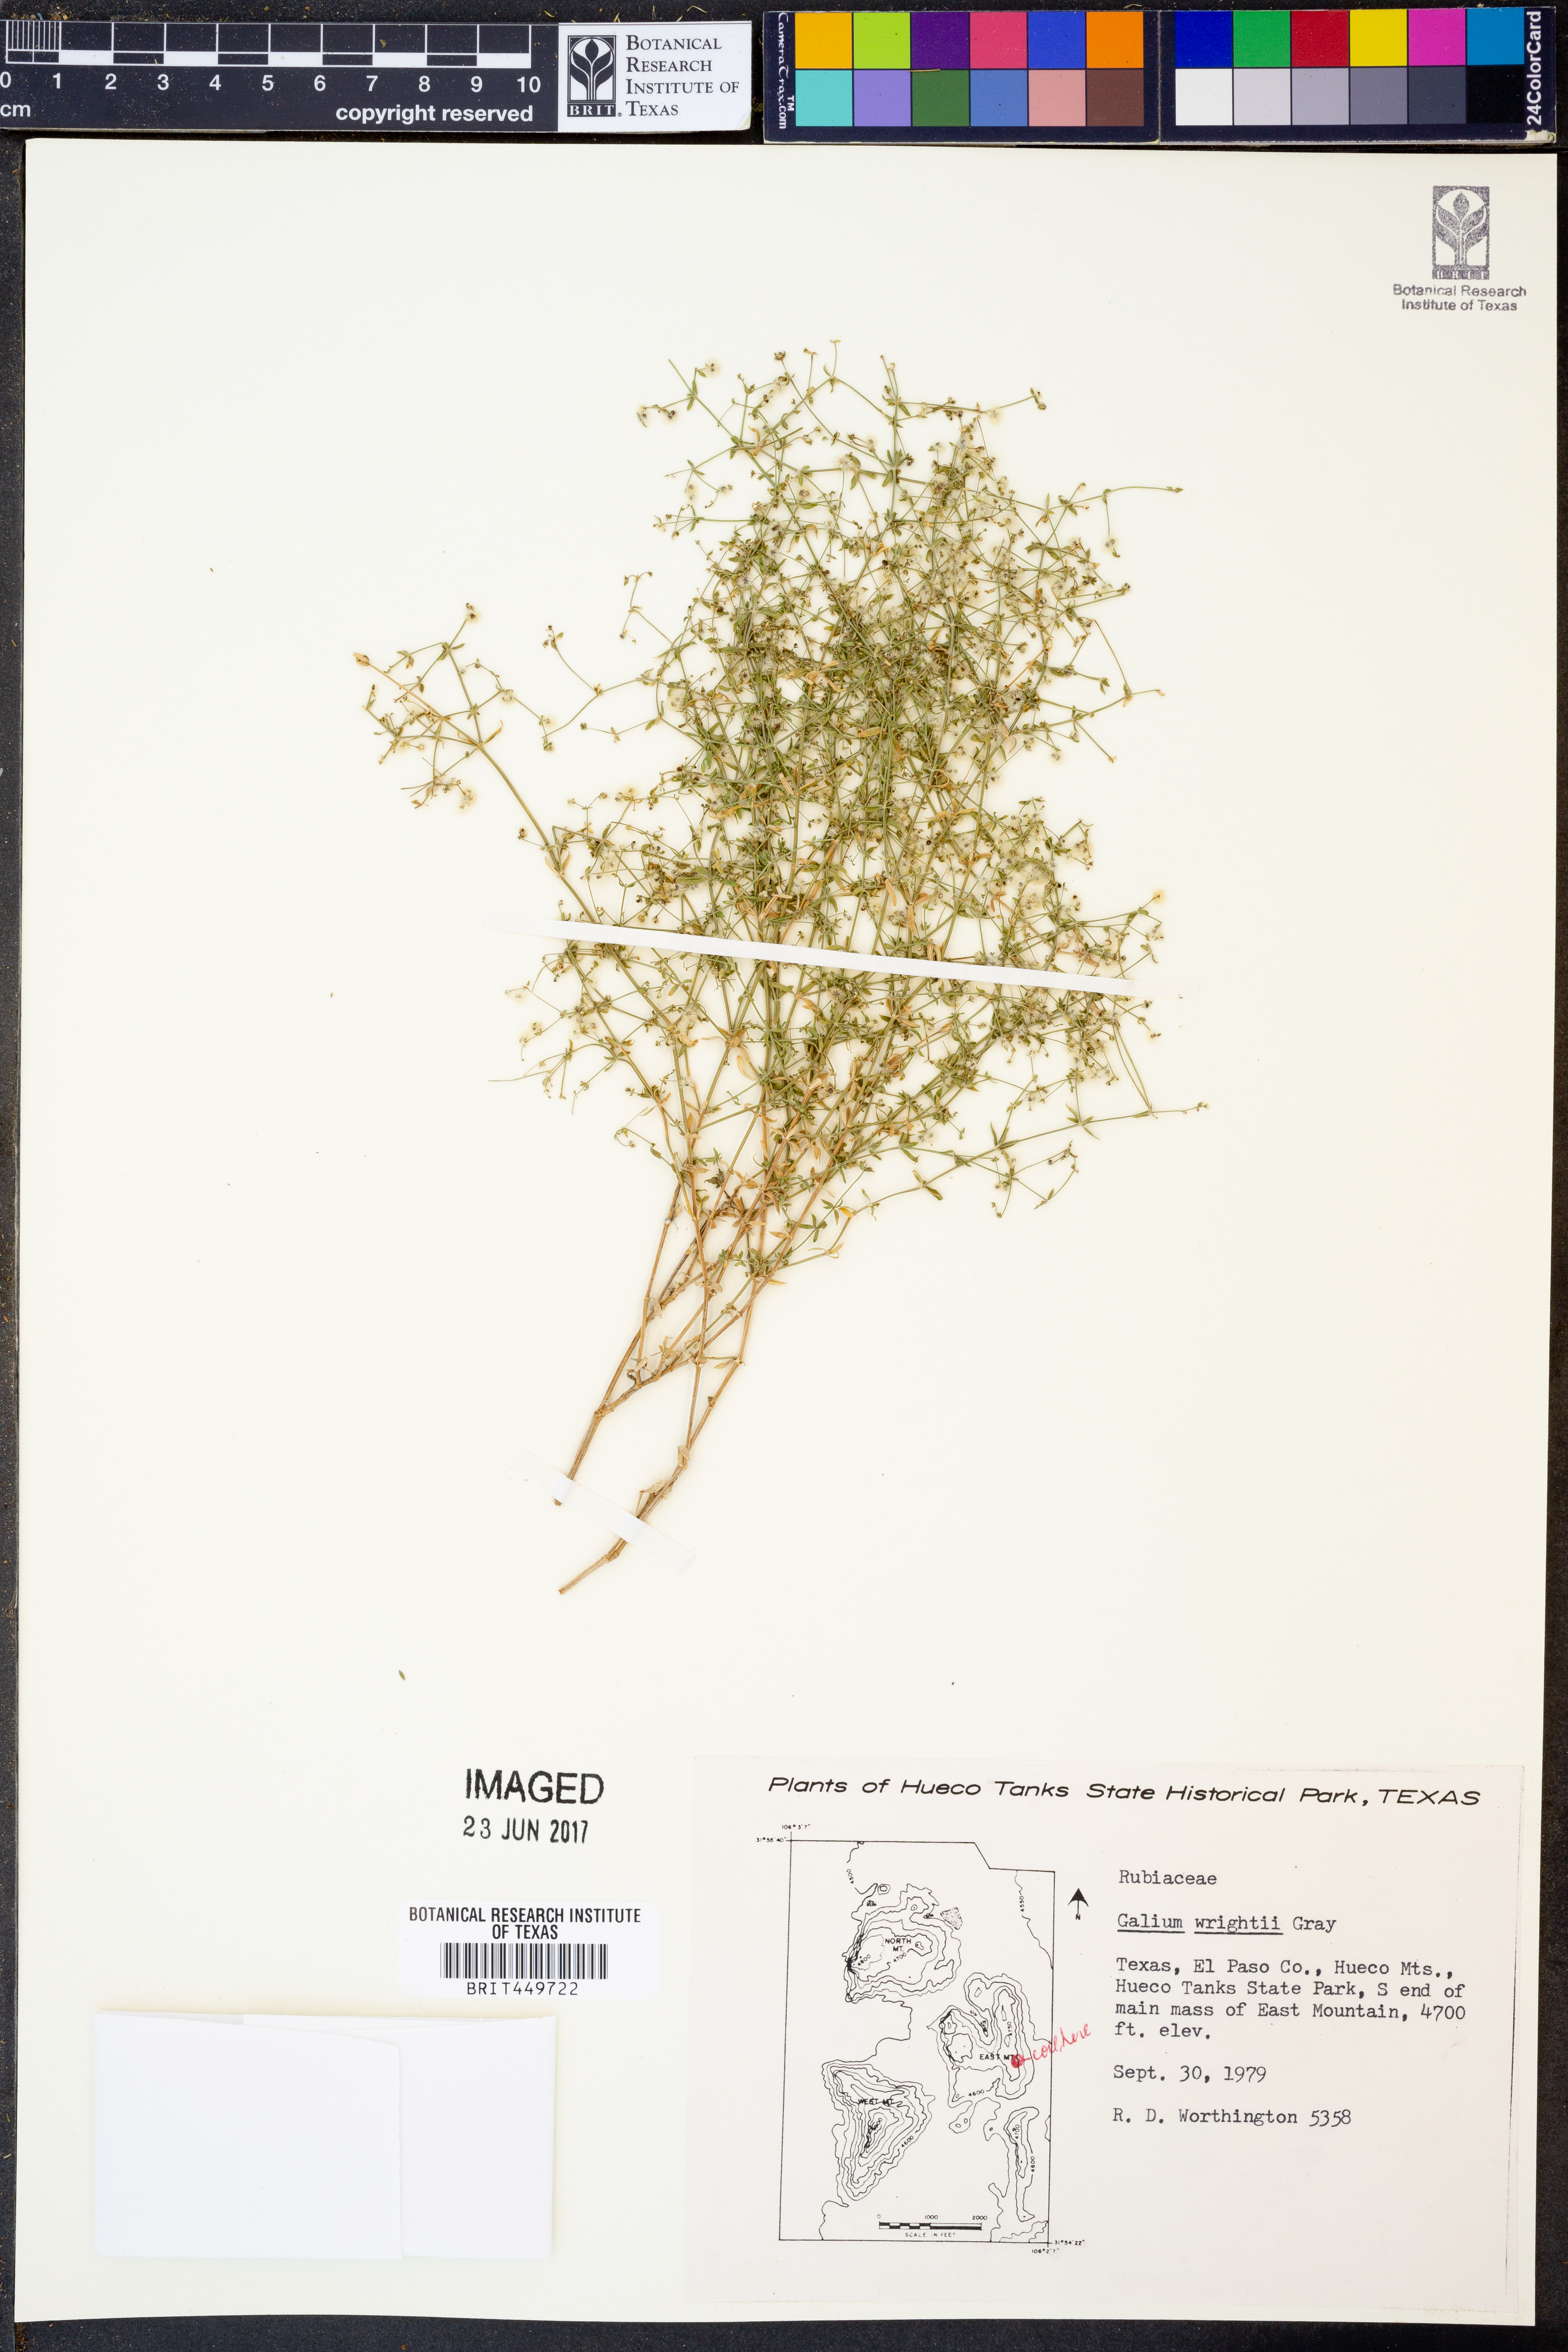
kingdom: Plantae
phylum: Tracheophyta
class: Magnoliopsida
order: Gentianales
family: Rubiaceae
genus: Galium
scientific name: Galium wrightii
